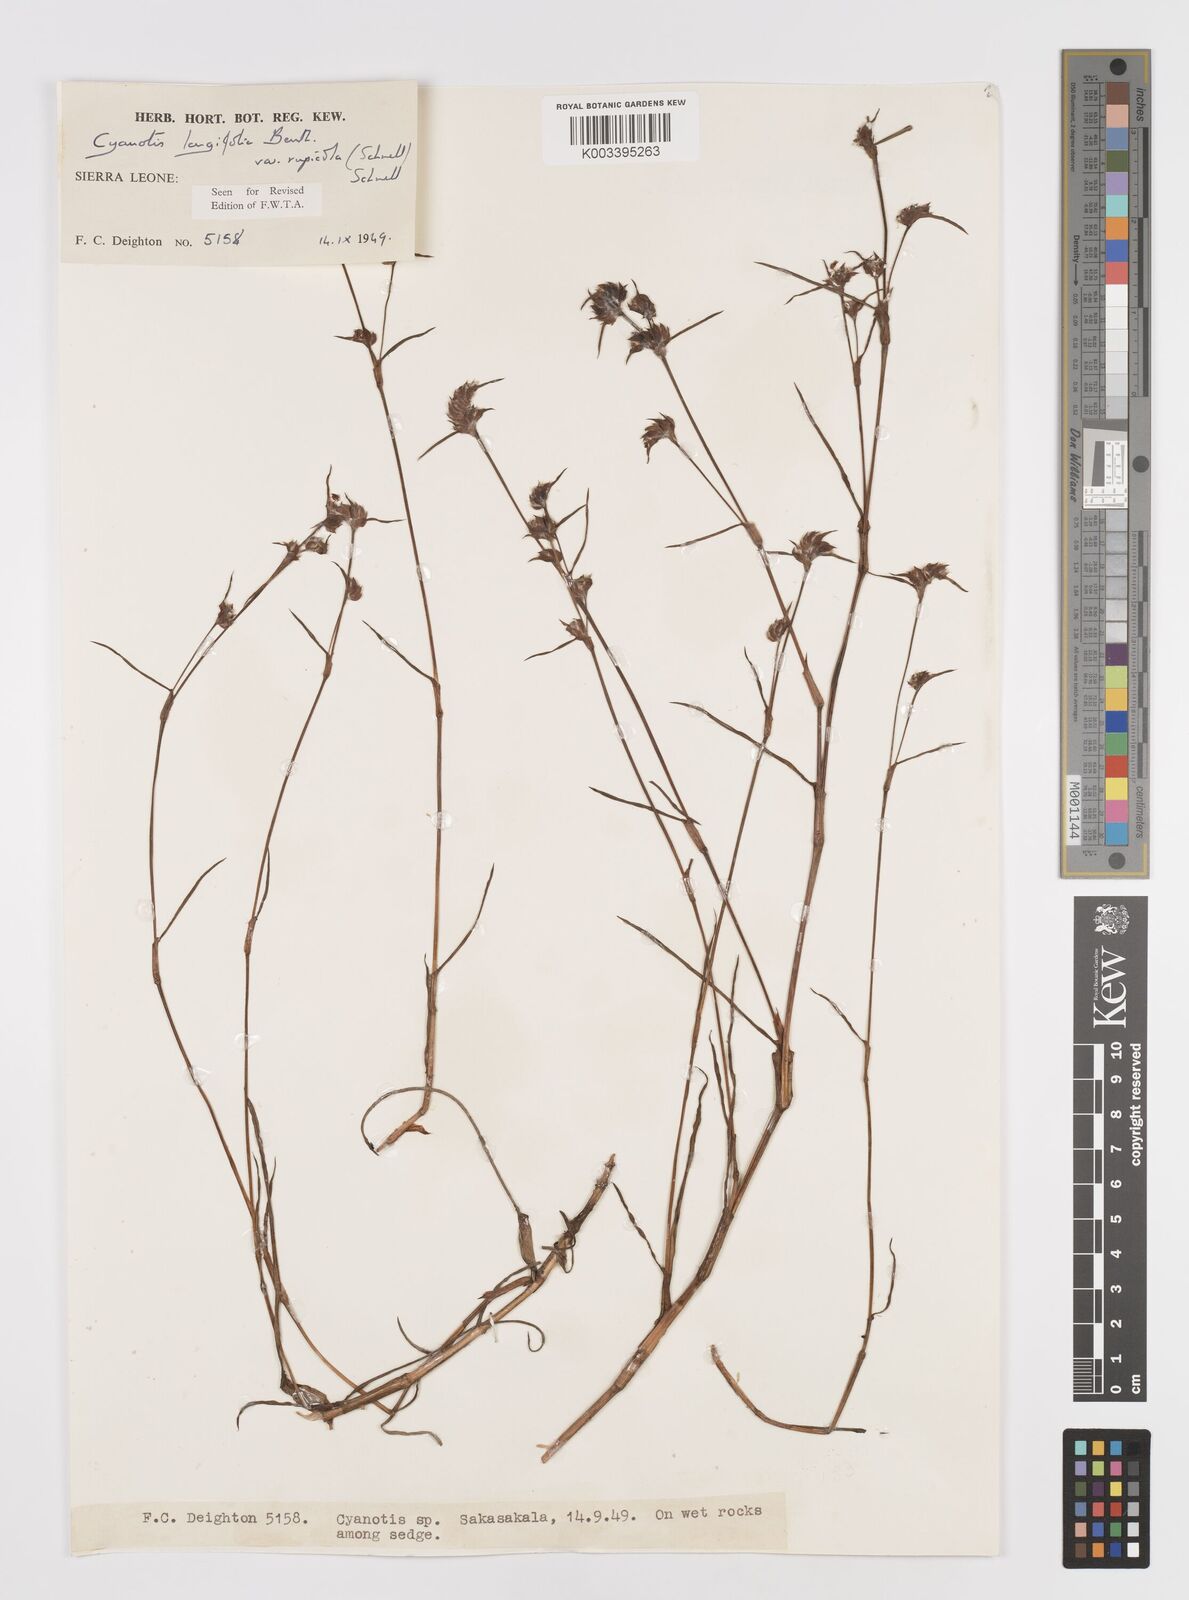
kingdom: Plantae
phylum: Tracheophyta
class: Liliopsida
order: Commelinales
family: Commelinaceae
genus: Cyanotis
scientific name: Cyanotis longifolia
